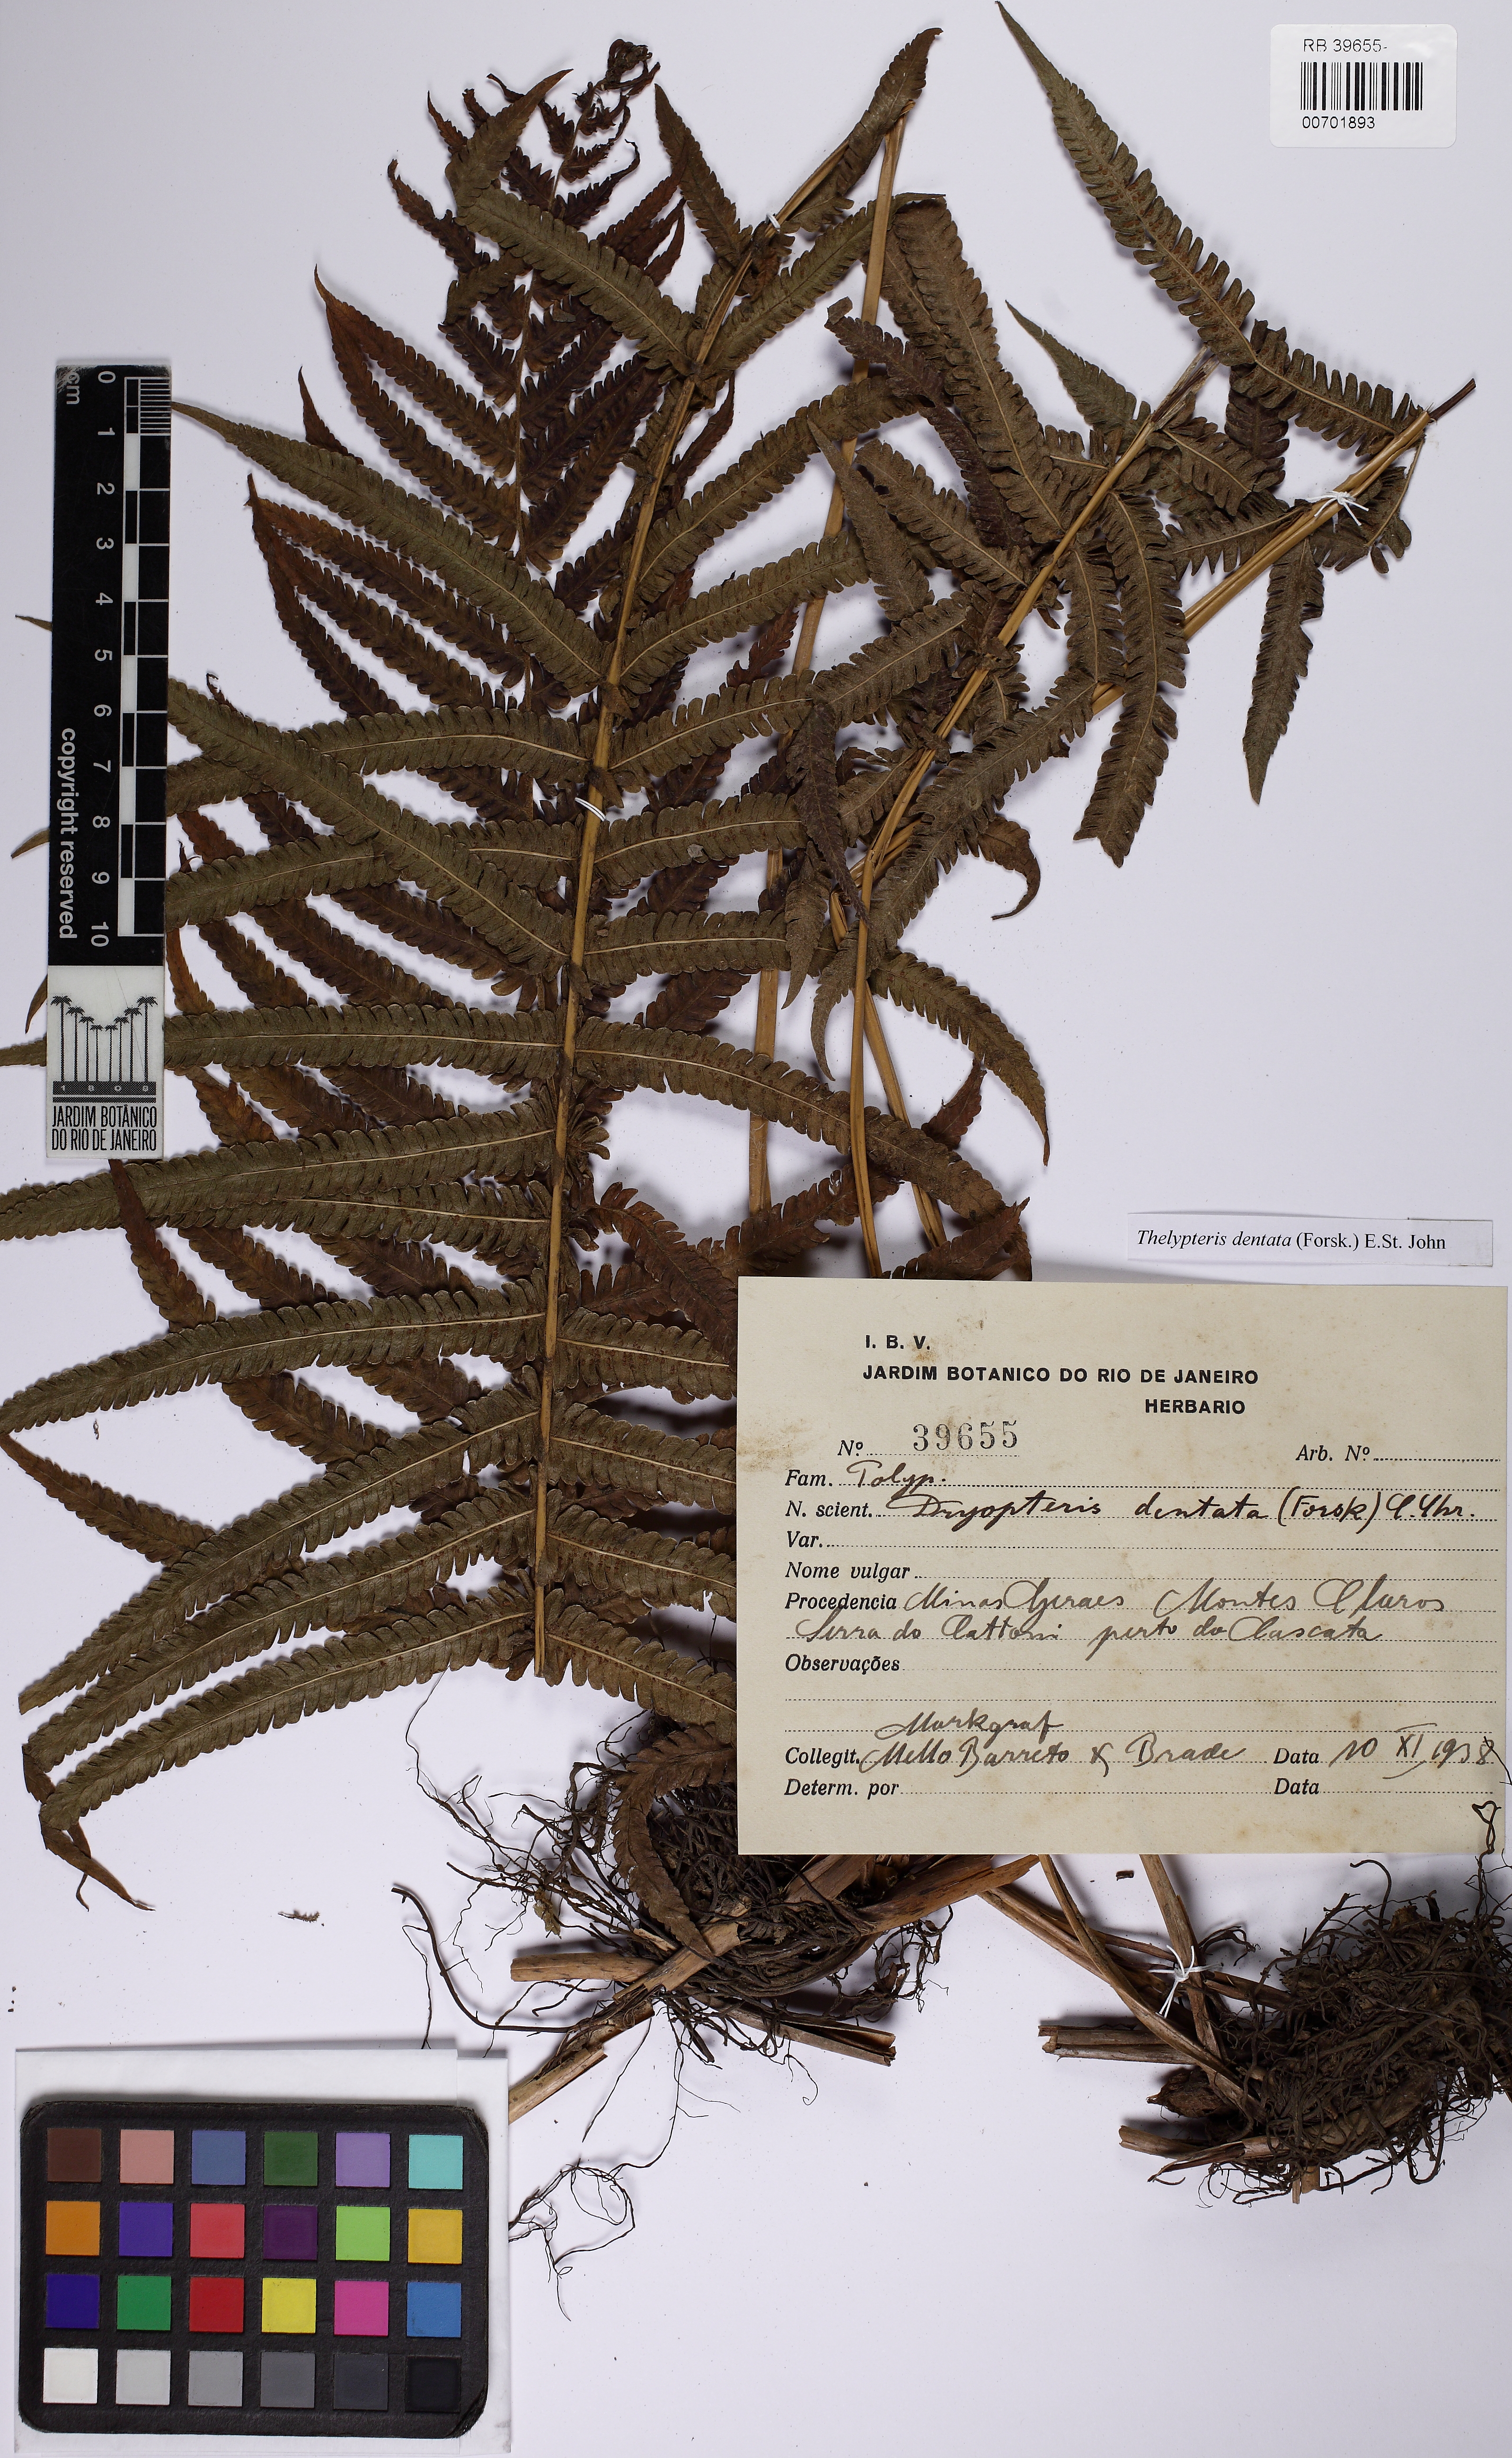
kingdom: Plantae
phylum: Tracheophyta
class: Polypodiopsida
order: Polypodiales
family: Thelypteridaceae
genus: Christella
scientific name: Christella dentata
